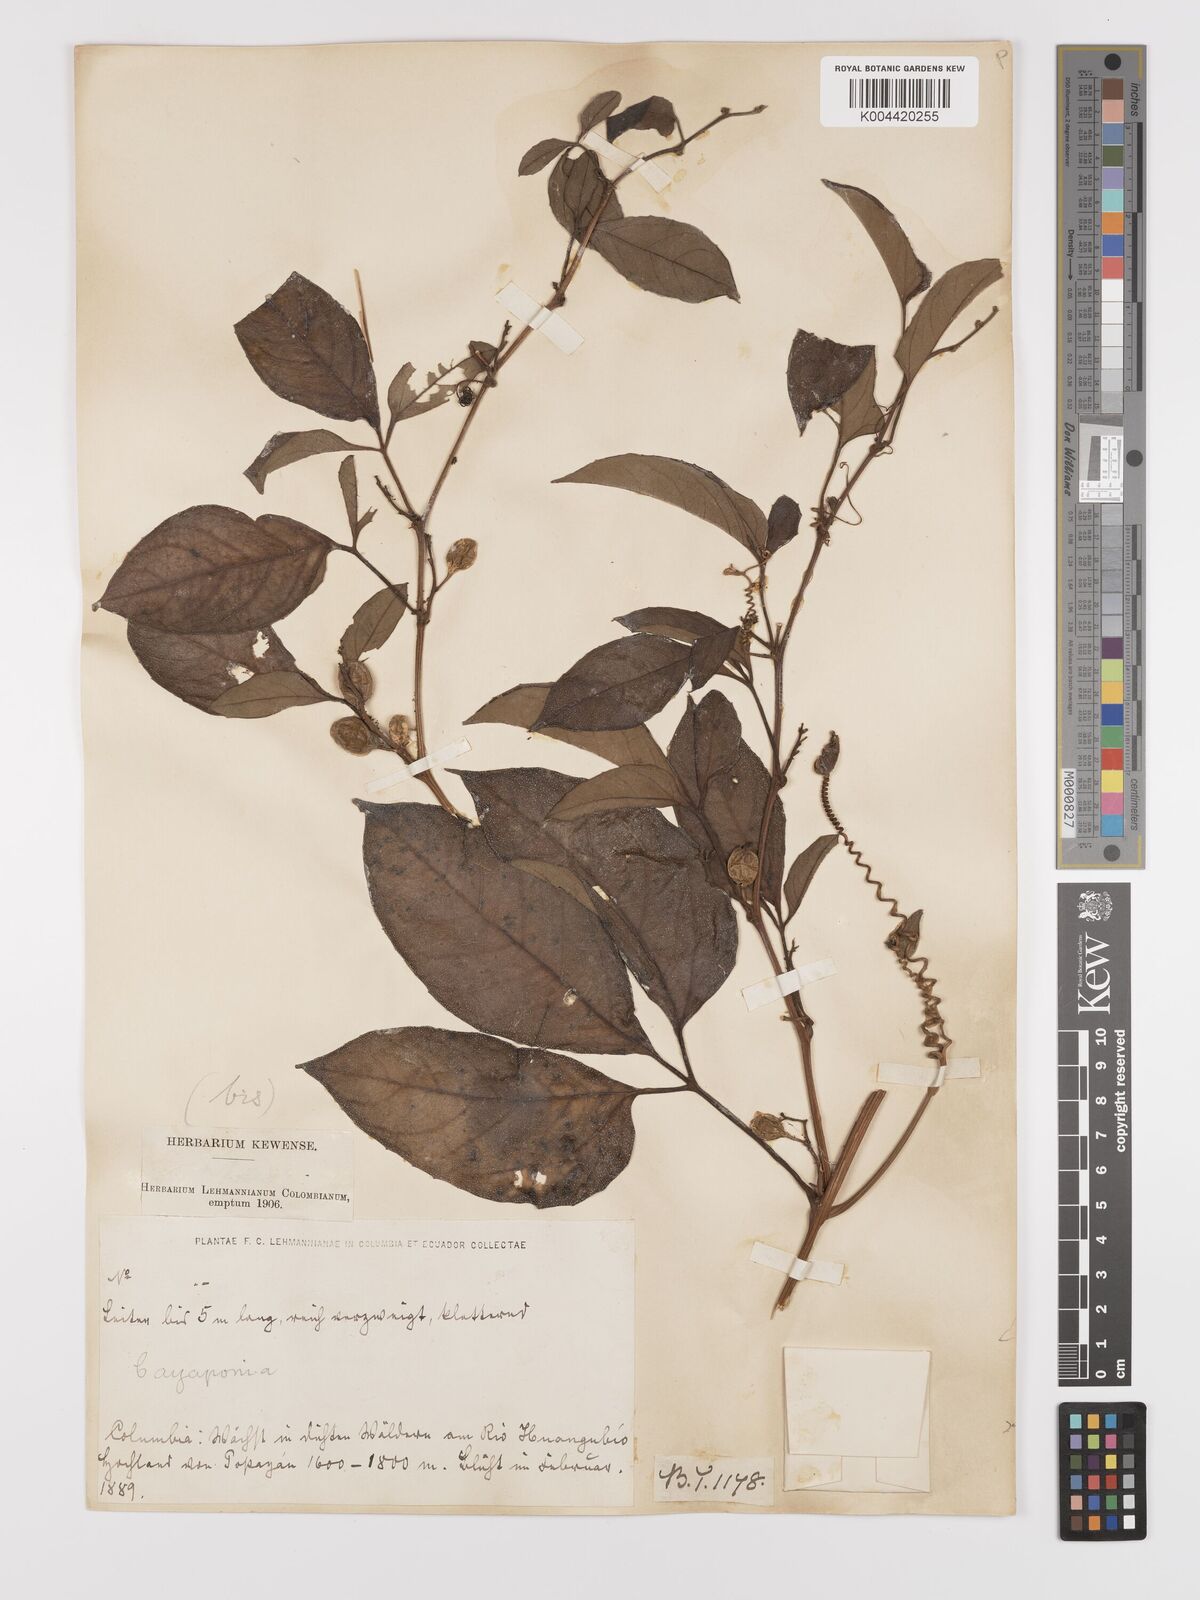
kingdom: Plantae
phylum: Tracheophyta
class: Magnoliopsida
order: Cucurbitales
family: Cucurbitaceae
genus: Cayaponia
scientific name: Cayaponia buraeavii
